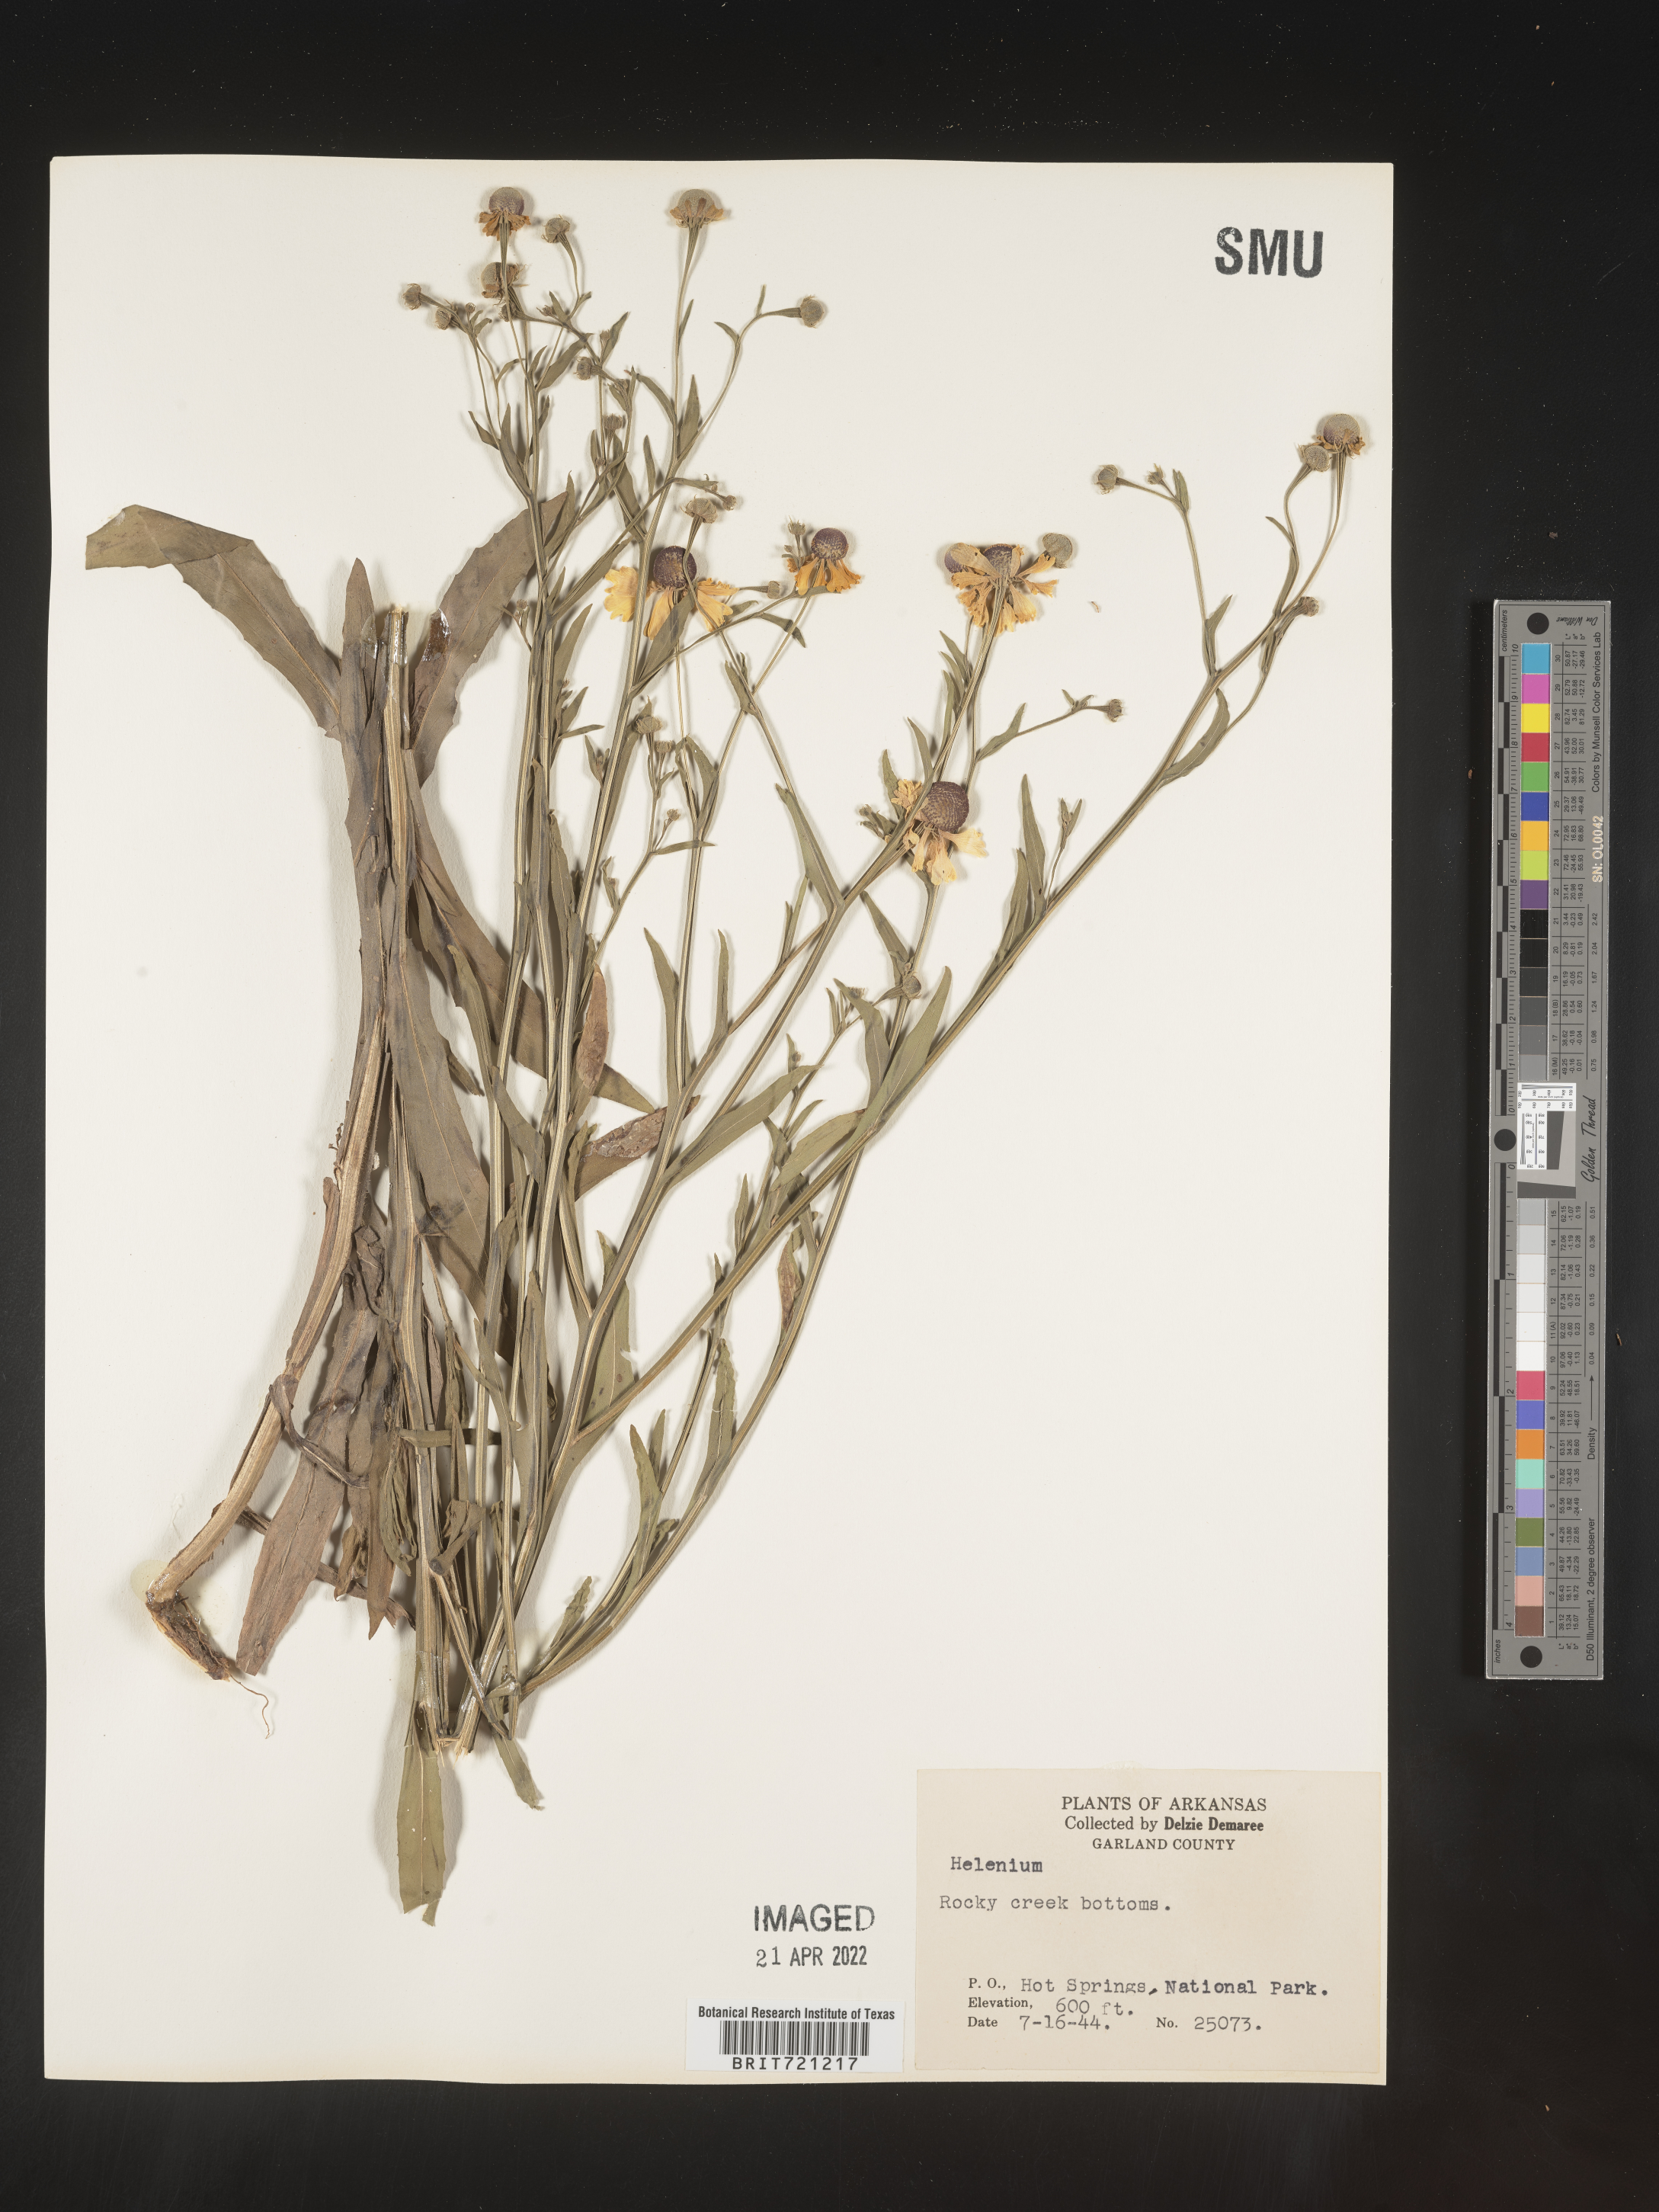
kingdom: Plantae
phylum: Tracheophyta
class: Magnoliopsida
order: Asterales
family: Asteraceae
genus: Helenium
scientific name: Helenium flexuosum
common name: Naked-flowered sneezeweed
